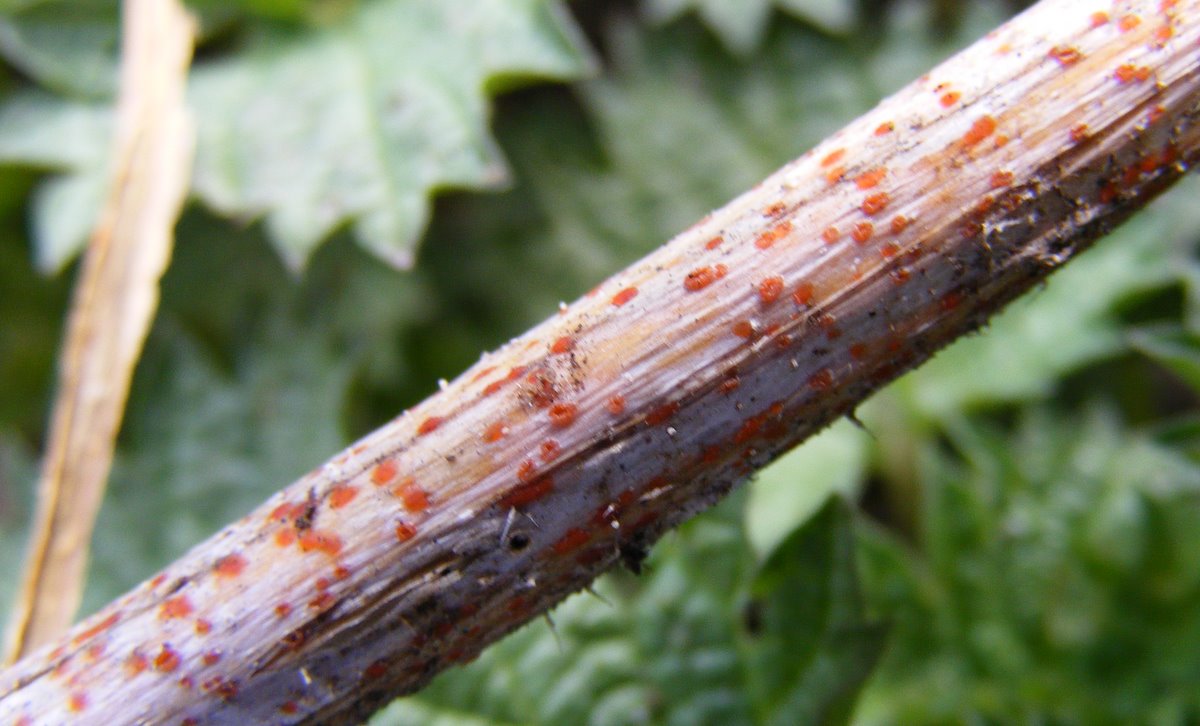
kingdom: Fungi
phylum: Ascomycota
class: Leotiomycetes
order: Helotiales
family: Calloriaceae
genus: Calloria
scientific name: Calloria urticae
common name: nælde-orangeskive
